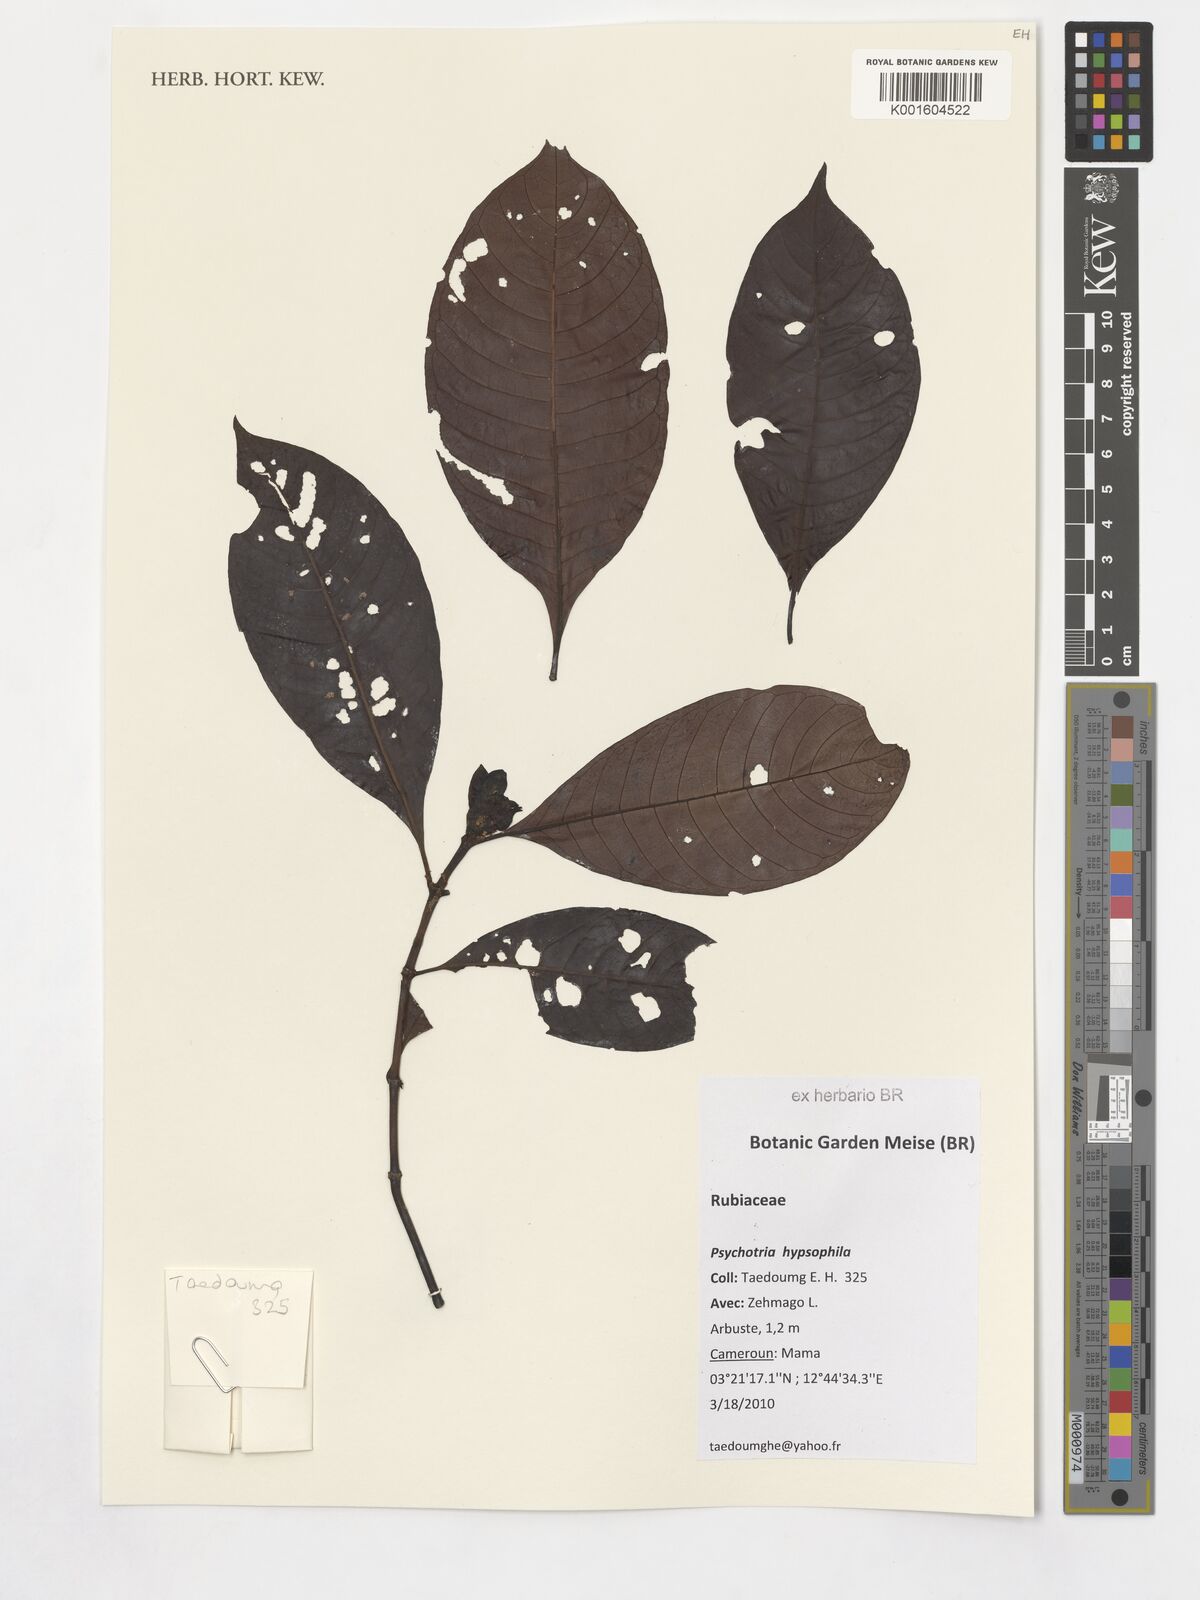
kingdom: Plantae
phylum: Tracheophyta
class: Magnoliopsida
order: Gentianales
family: Rubiaceae
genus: Psychotria
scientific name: Psychotria peduncularis
